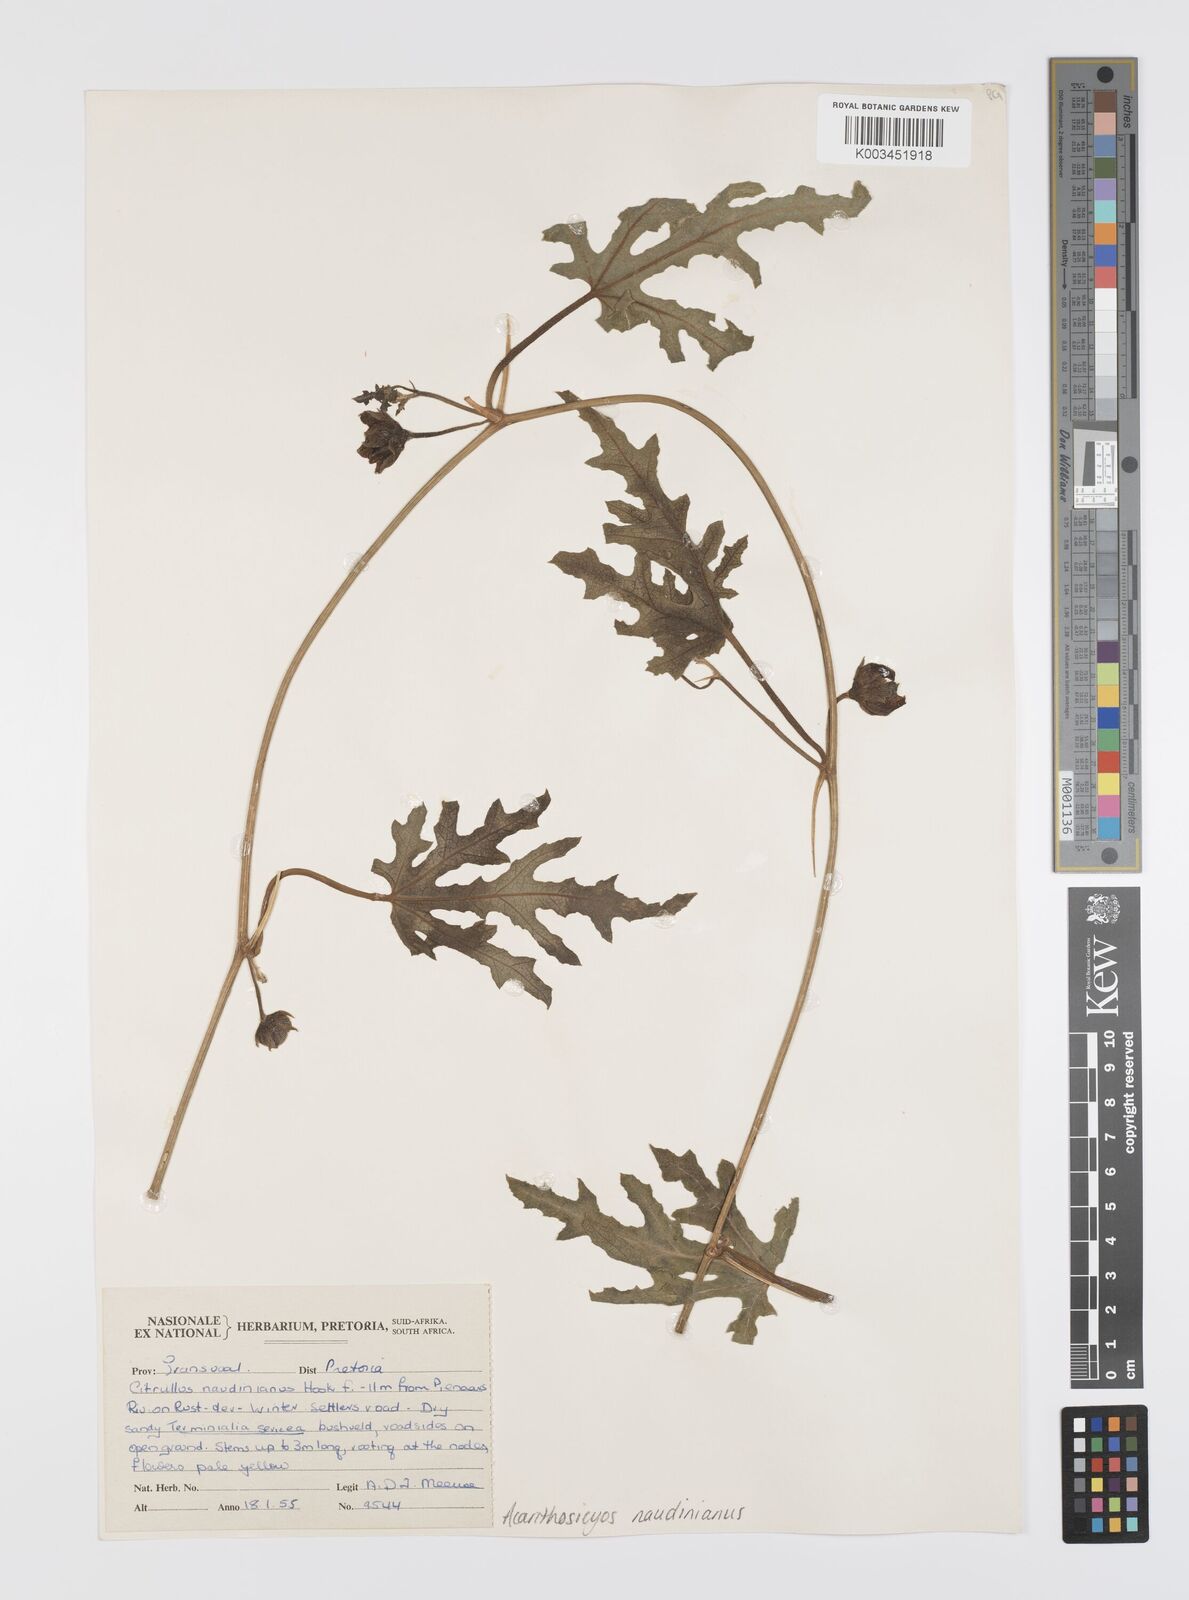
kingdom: Plantae
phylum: Tracheophyta
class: Magnoliopsida
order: Cucurbitales
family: Cucurbitaceae
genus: Citrullus
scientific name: Citrullus naudinianus
